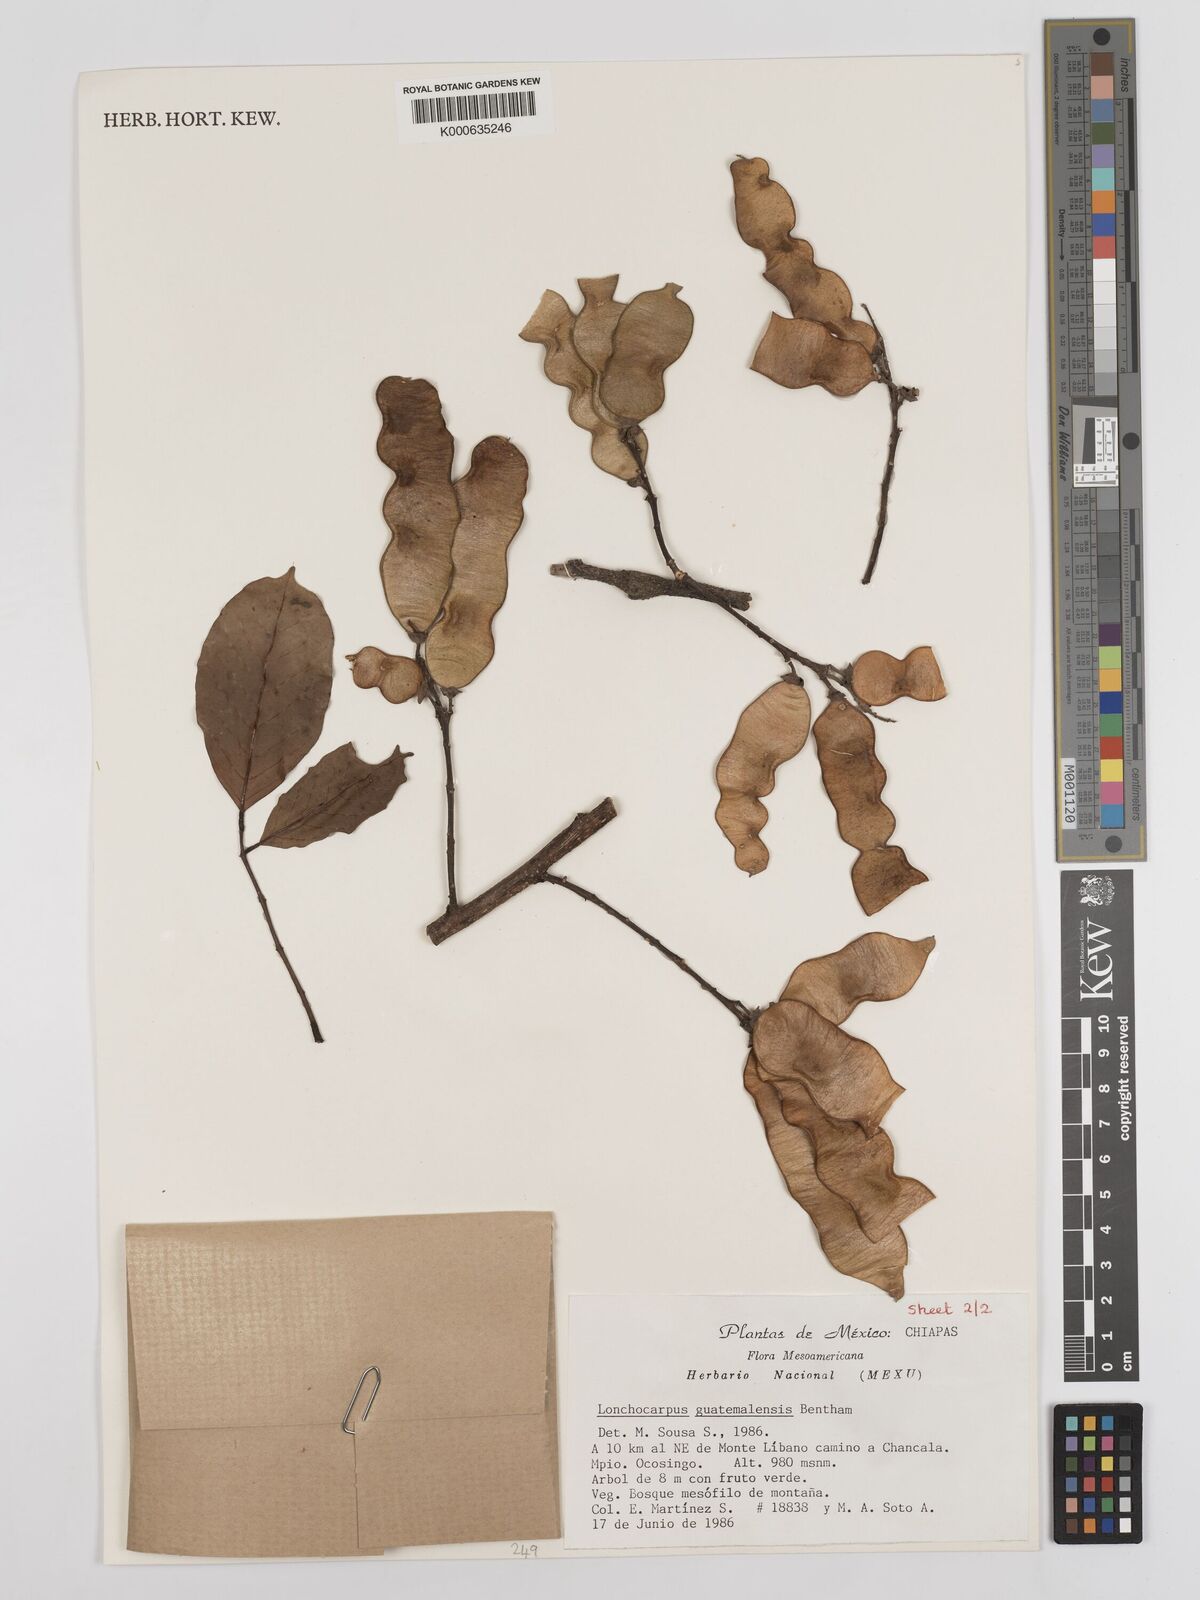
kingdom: Plantae
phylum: Tracheophyta
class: Magnoliopsida
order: Fabales
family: Fabaceae
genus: Lonchocarpus
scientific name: Lonchocarpus guatemalensis
